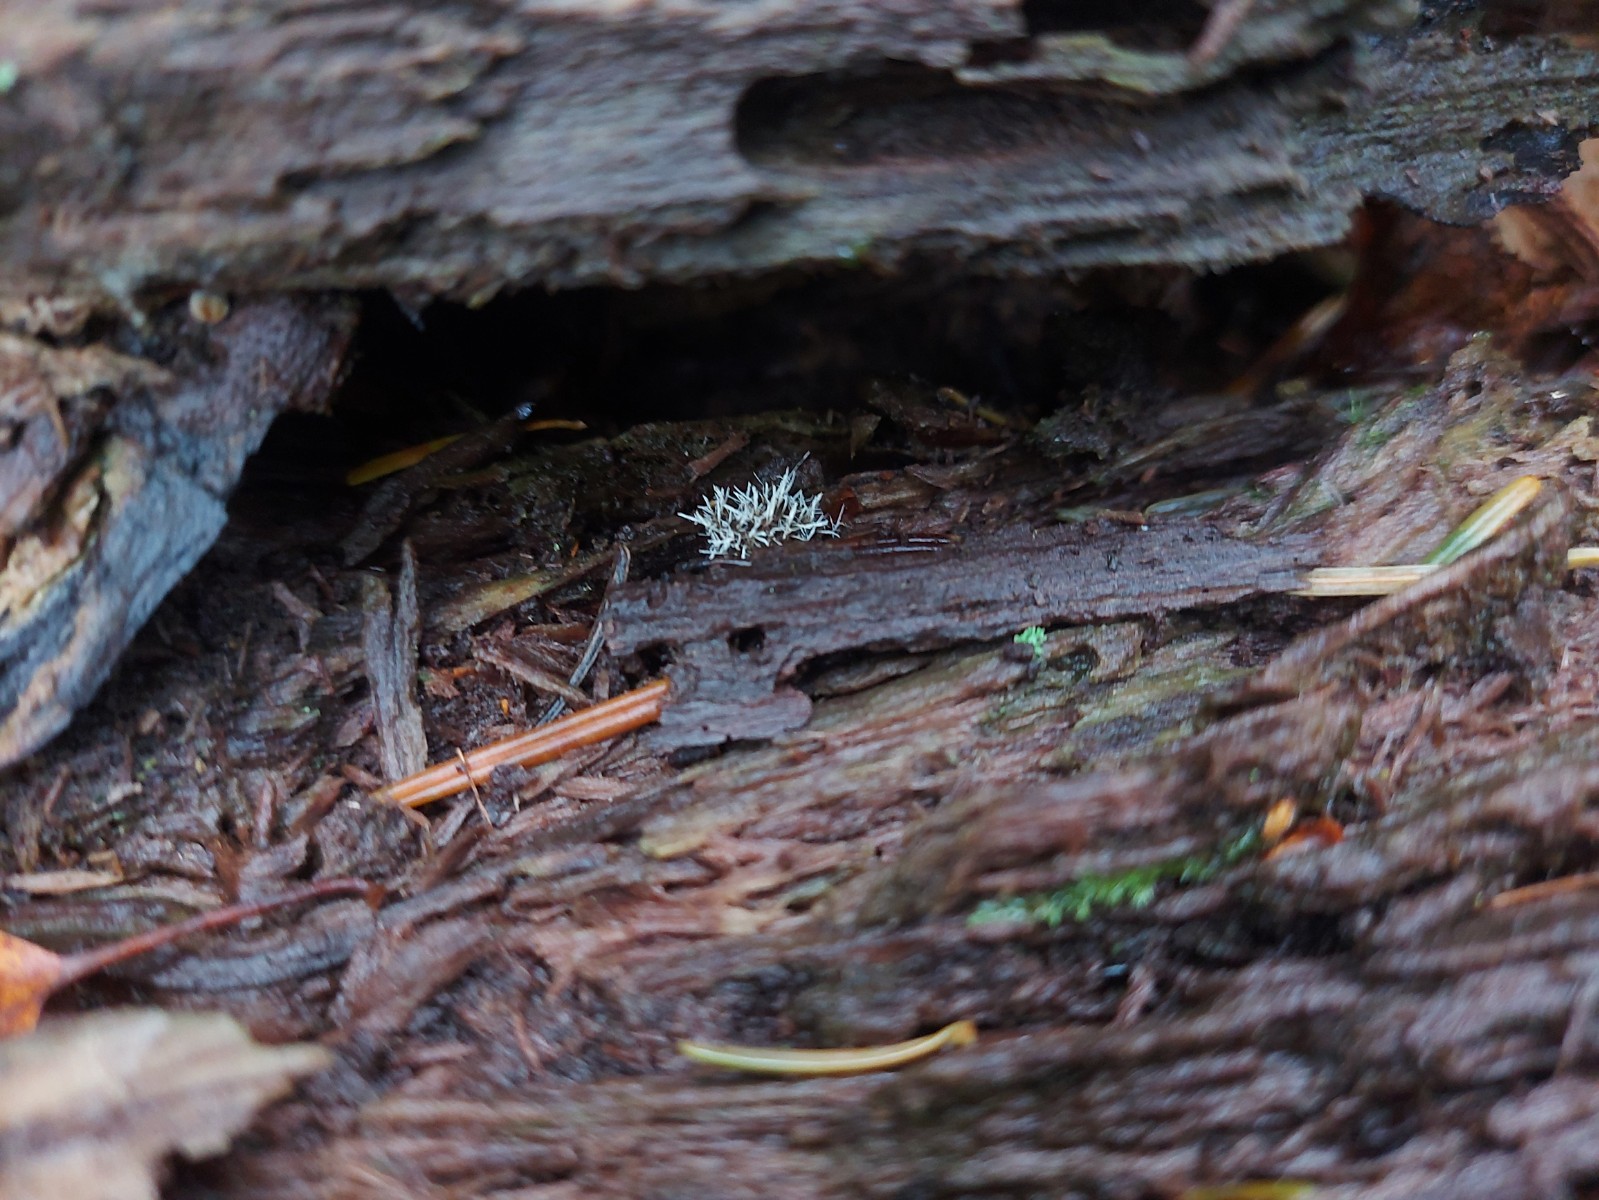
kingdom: Fungi
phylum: Ascomycota
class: Sordariomycetes
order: Hypocreales
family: Tilachlidiaceae
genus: Tilachlidium
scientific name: Tilachlidium brachiatum
